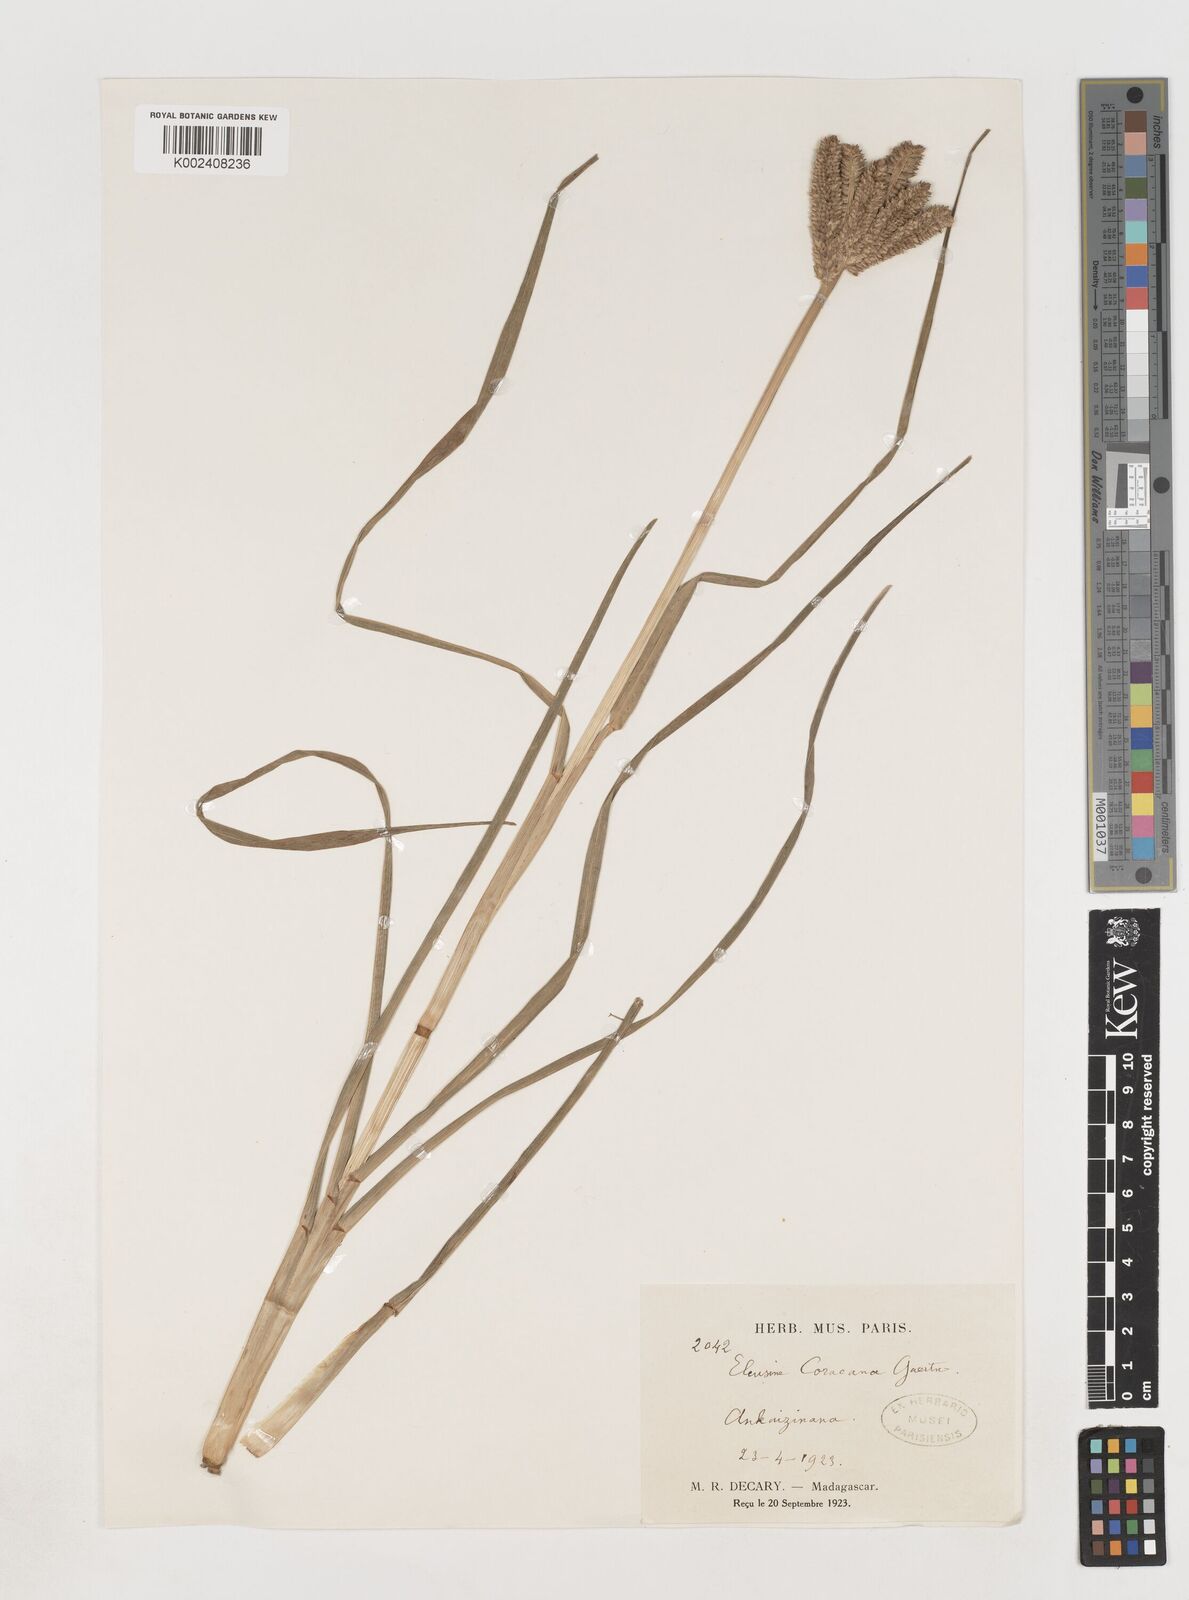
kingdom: Plantae
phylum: Tracheophyta
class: Liliopsida
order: Poales
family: Poaceae
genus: Eleusine
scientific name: Eleusine coracana
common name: Finger millet
